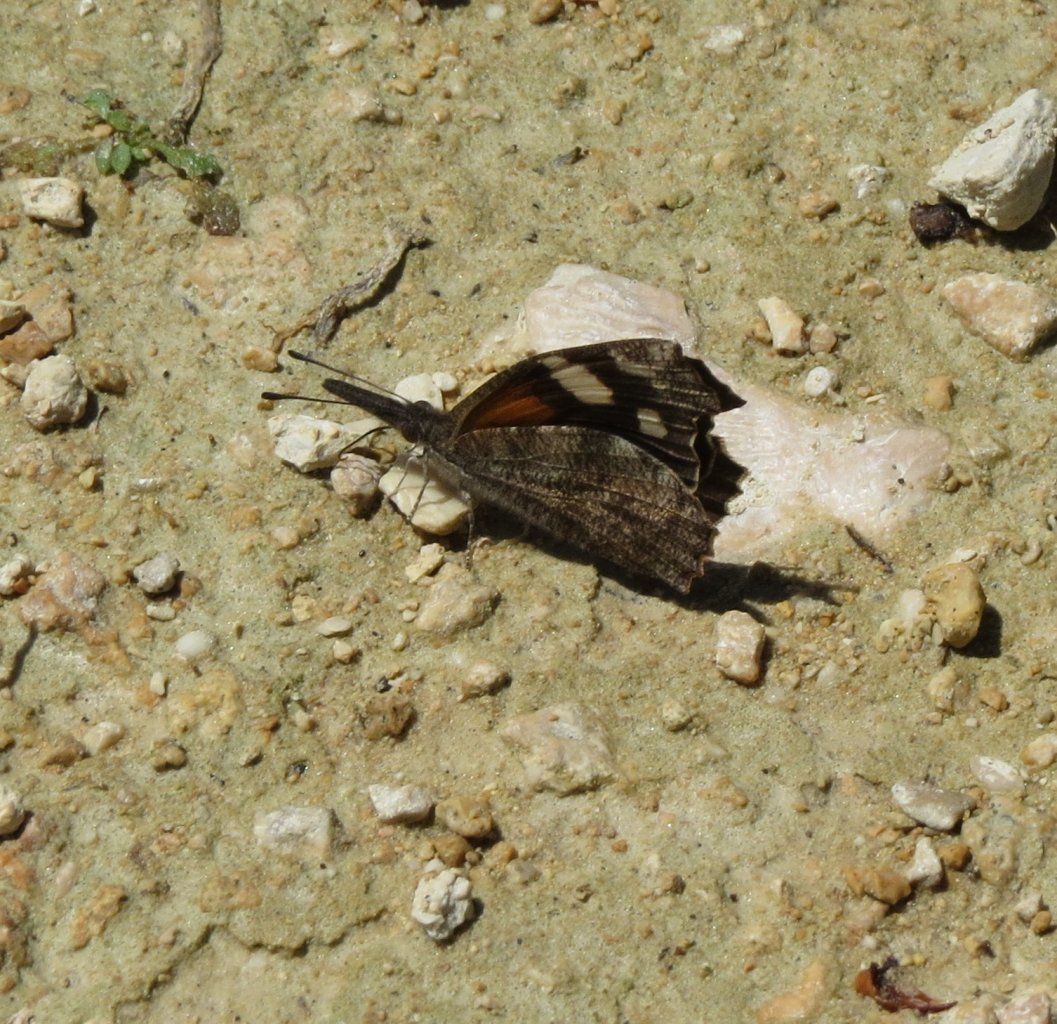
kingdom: Animalia
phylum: Arthropoda
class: Insecta
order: Lepidoptera
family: Nymphalidae
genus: Libytheana
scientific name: Libytheana carinenta
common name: American Snout
